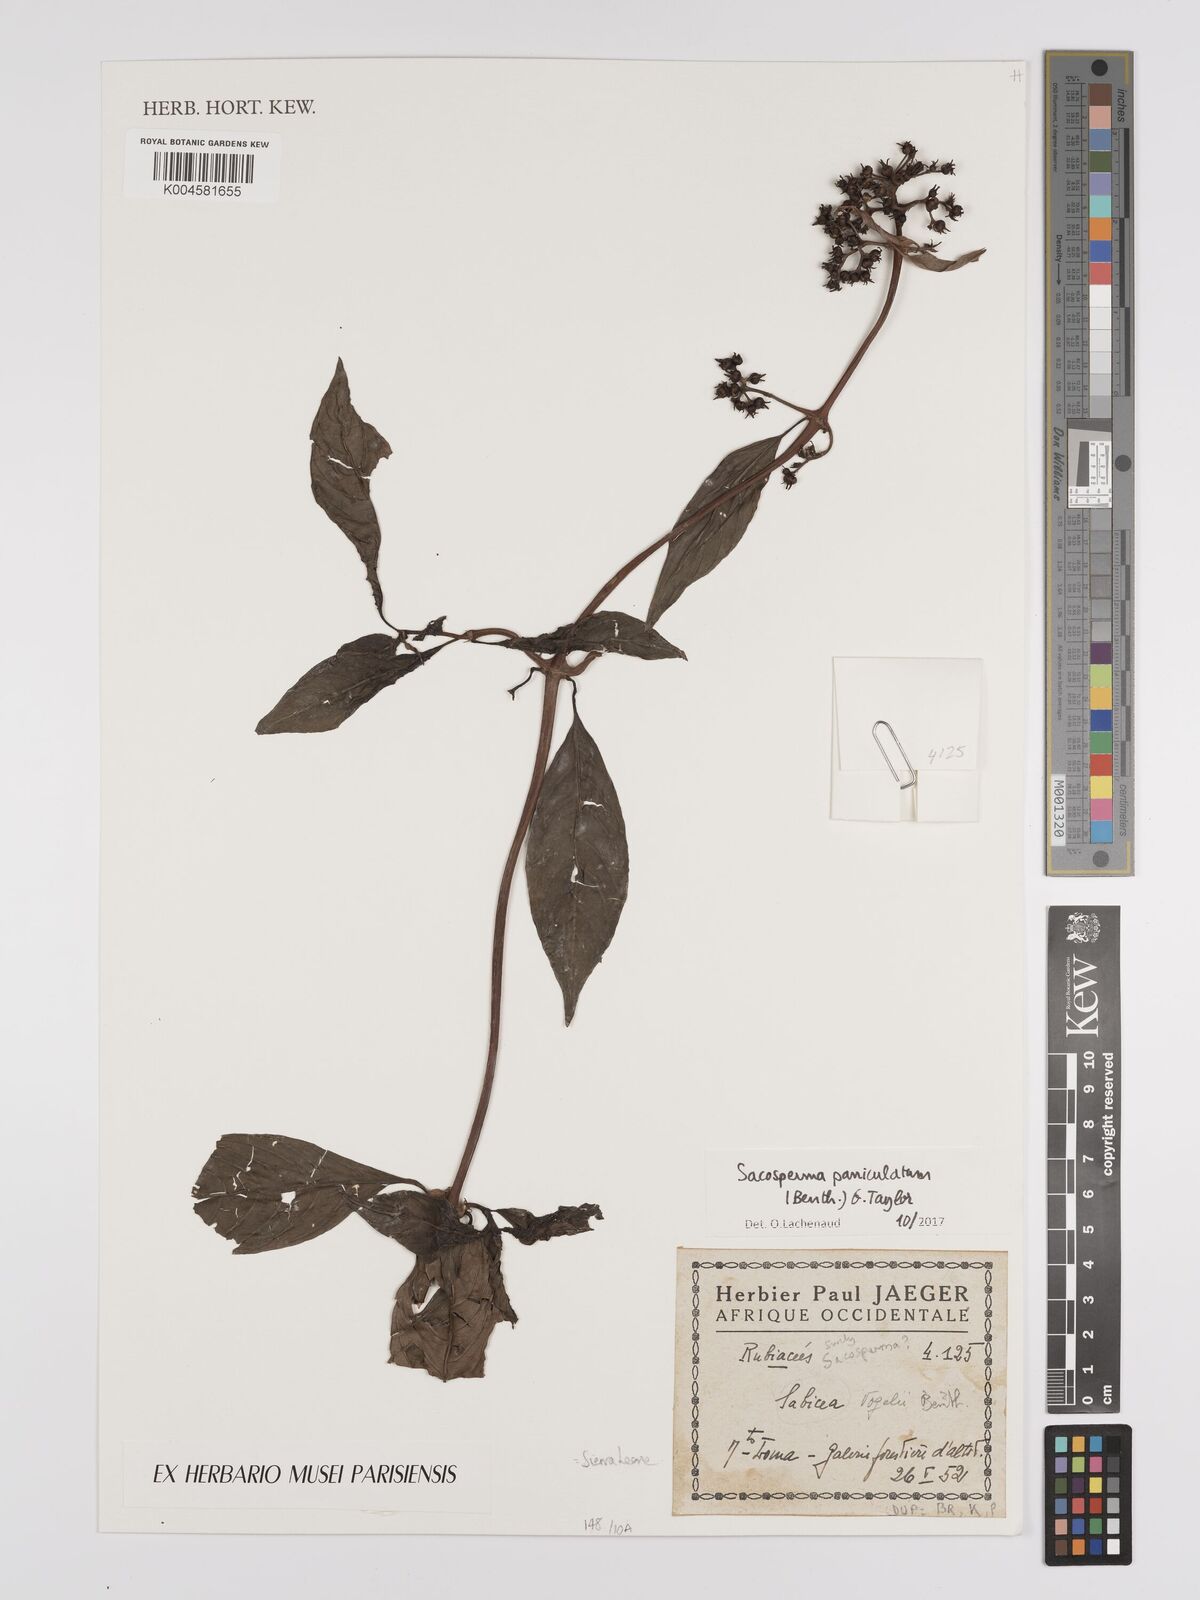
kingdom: Plantae
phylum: Tracheophyta
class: Magnoliopsida
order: Gentianales
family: Rubiaceae
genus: Sacosperma
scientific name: Sacosperma paniculatum
